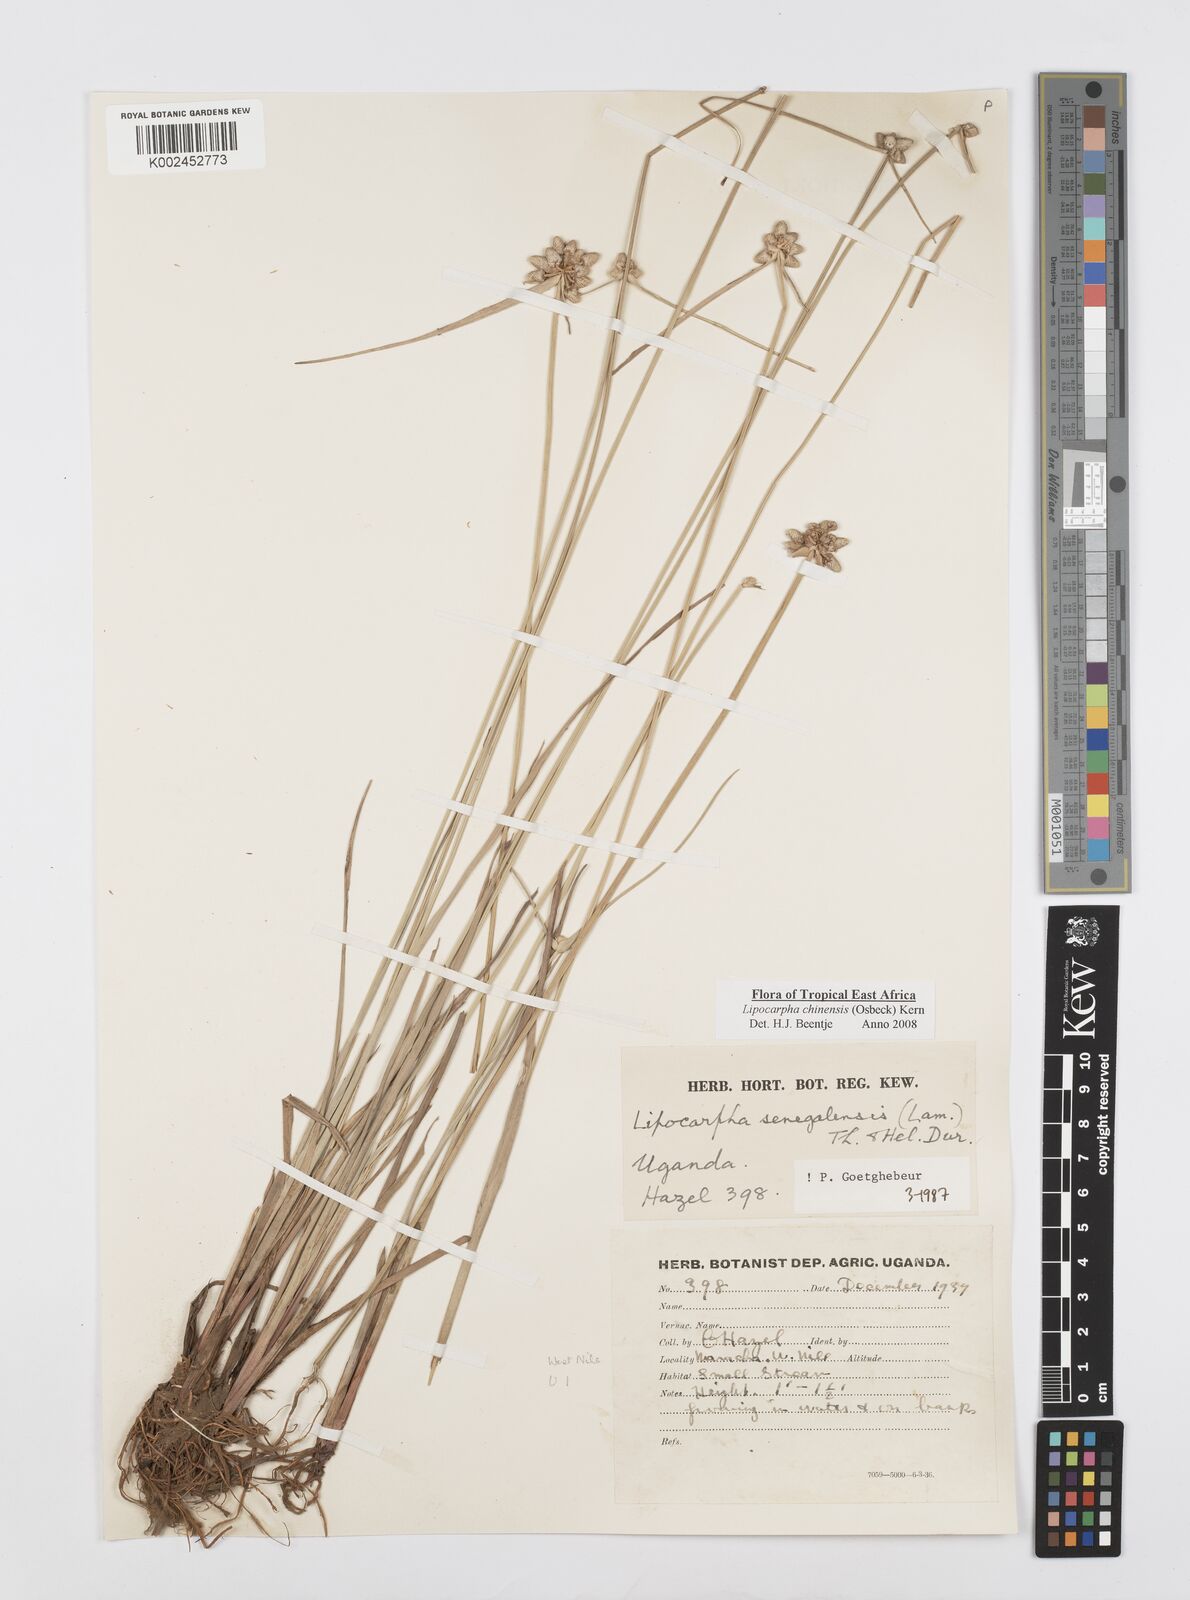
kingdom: Plantae
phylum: Tracheophyta
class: Liliopsida
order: Poales
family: Cyperaceae
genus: Cyperus
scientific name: Cyperus albescens
